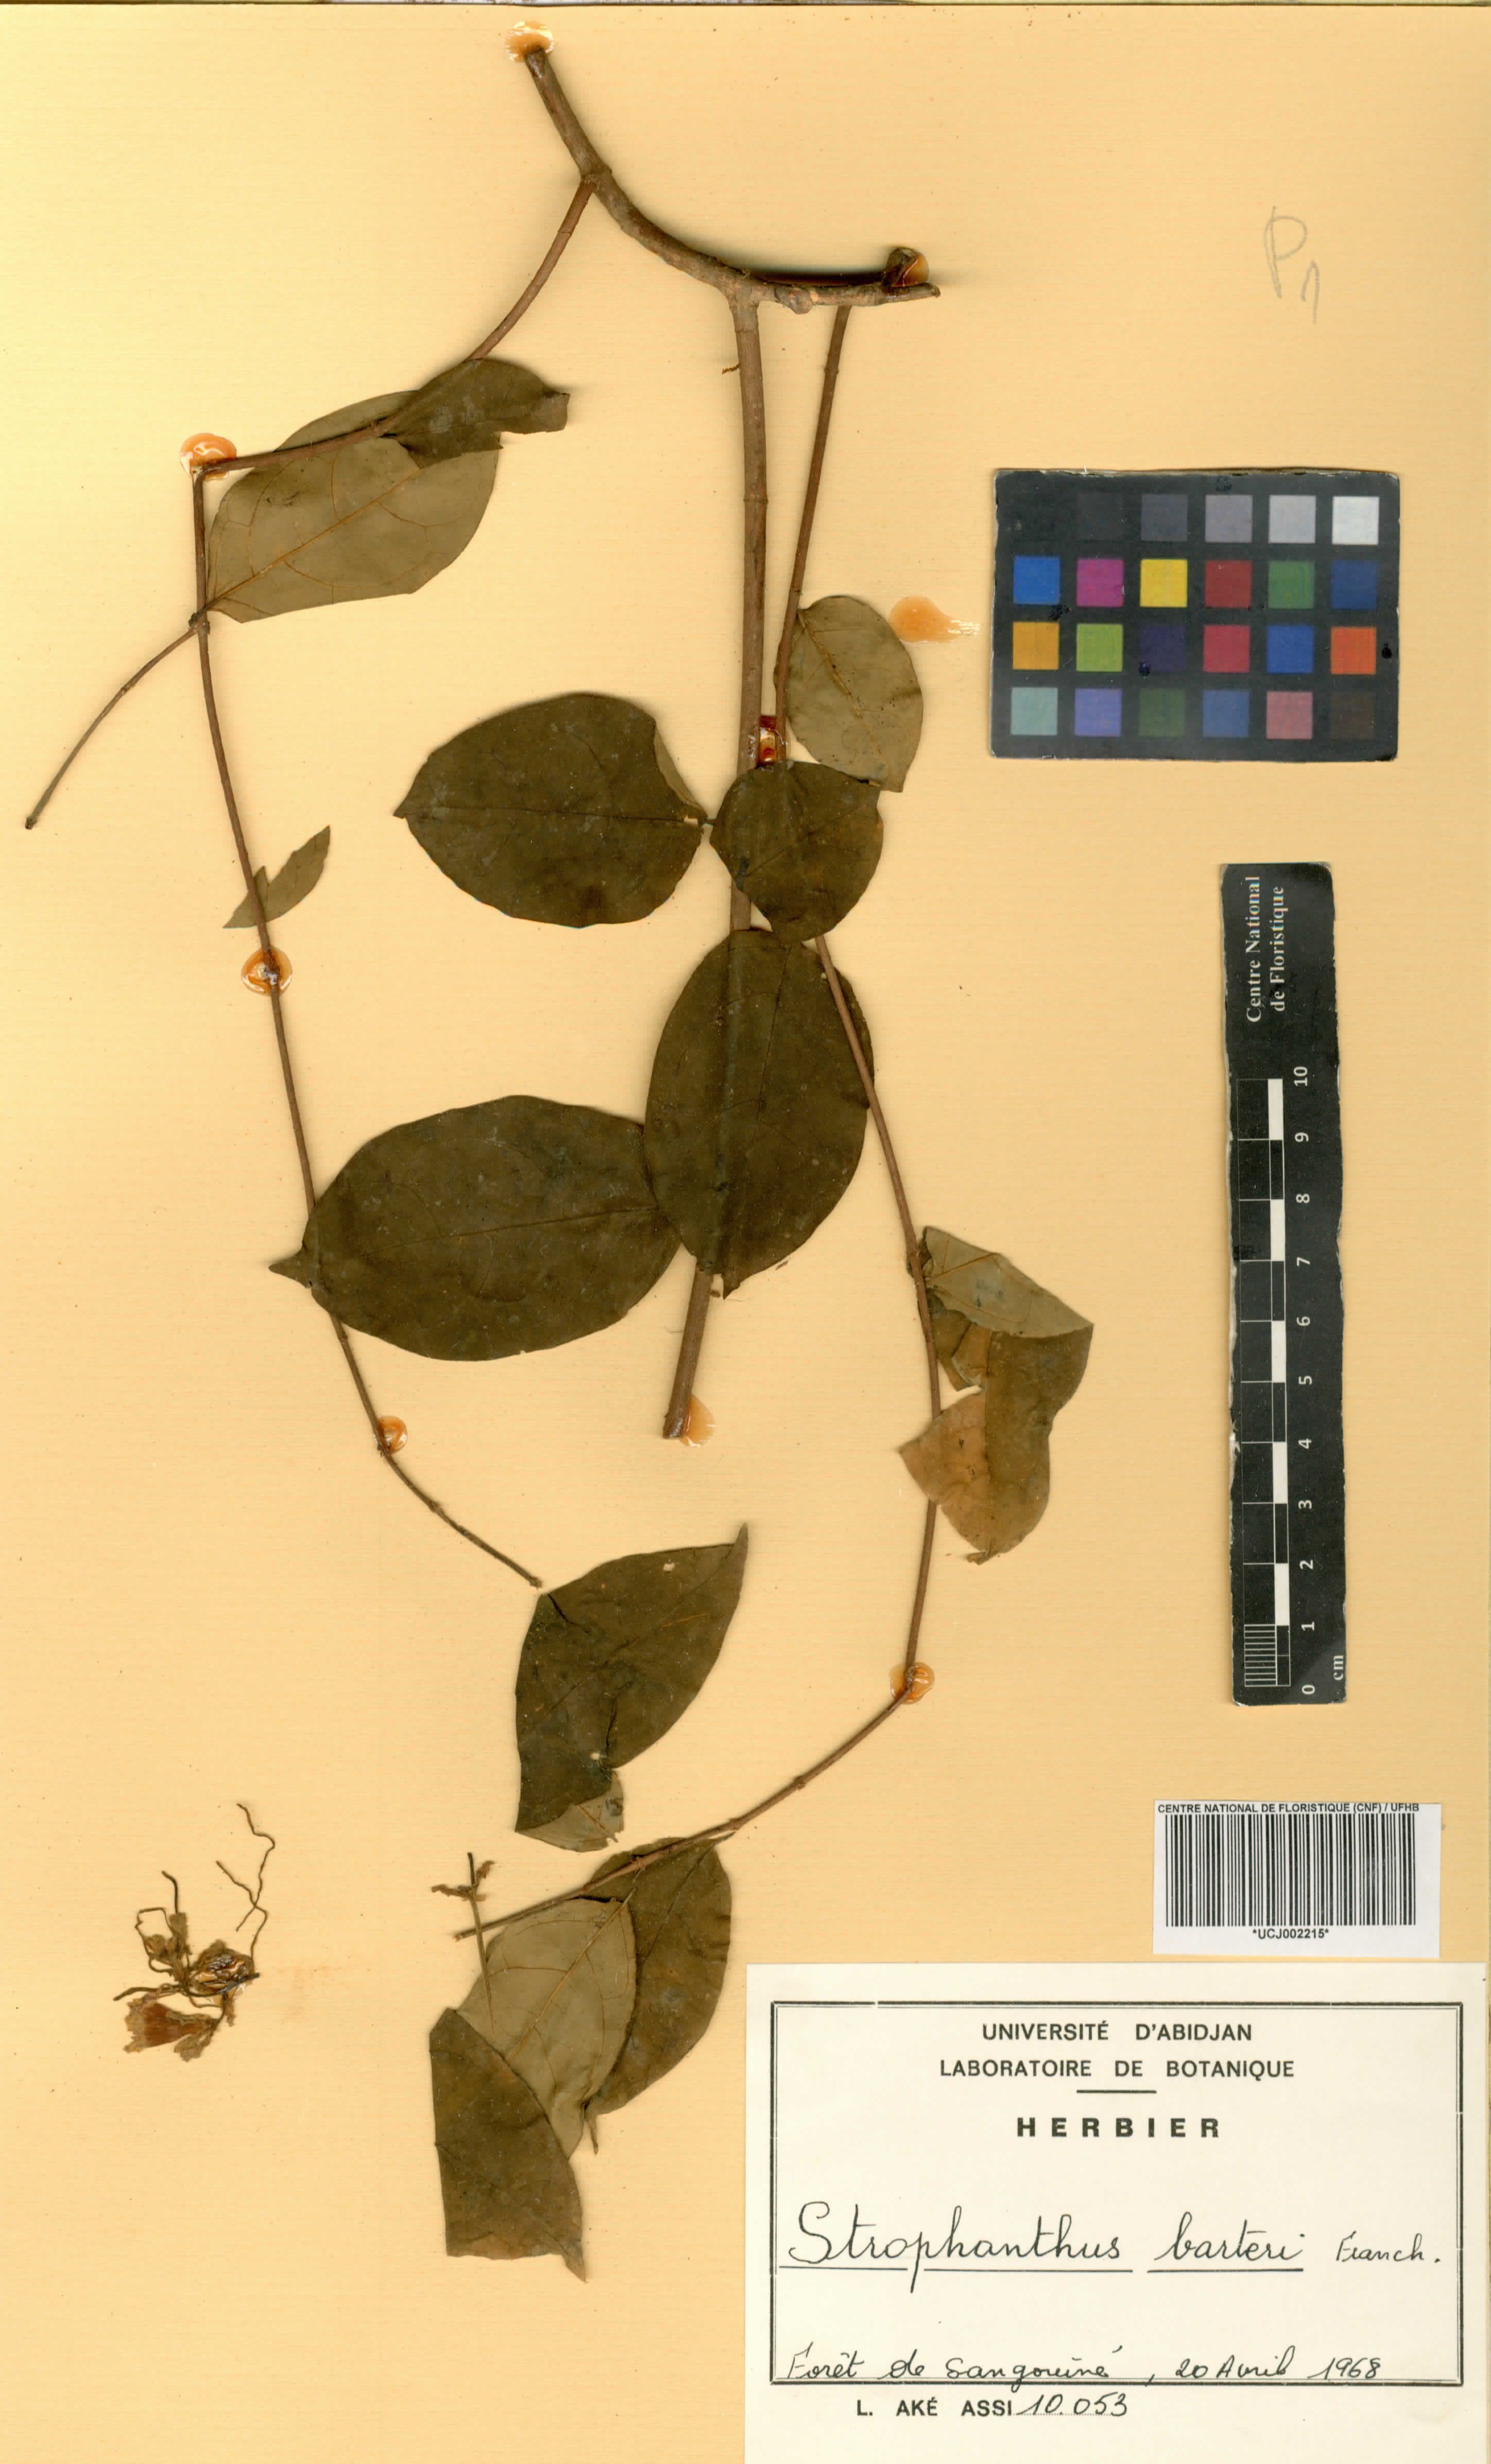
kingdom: Plantae
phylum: Tracheophyta
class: Magnoliopsida
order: Gentianales
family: Apocynaceae
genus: Strophanthus
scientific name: Strophanthus barteri
